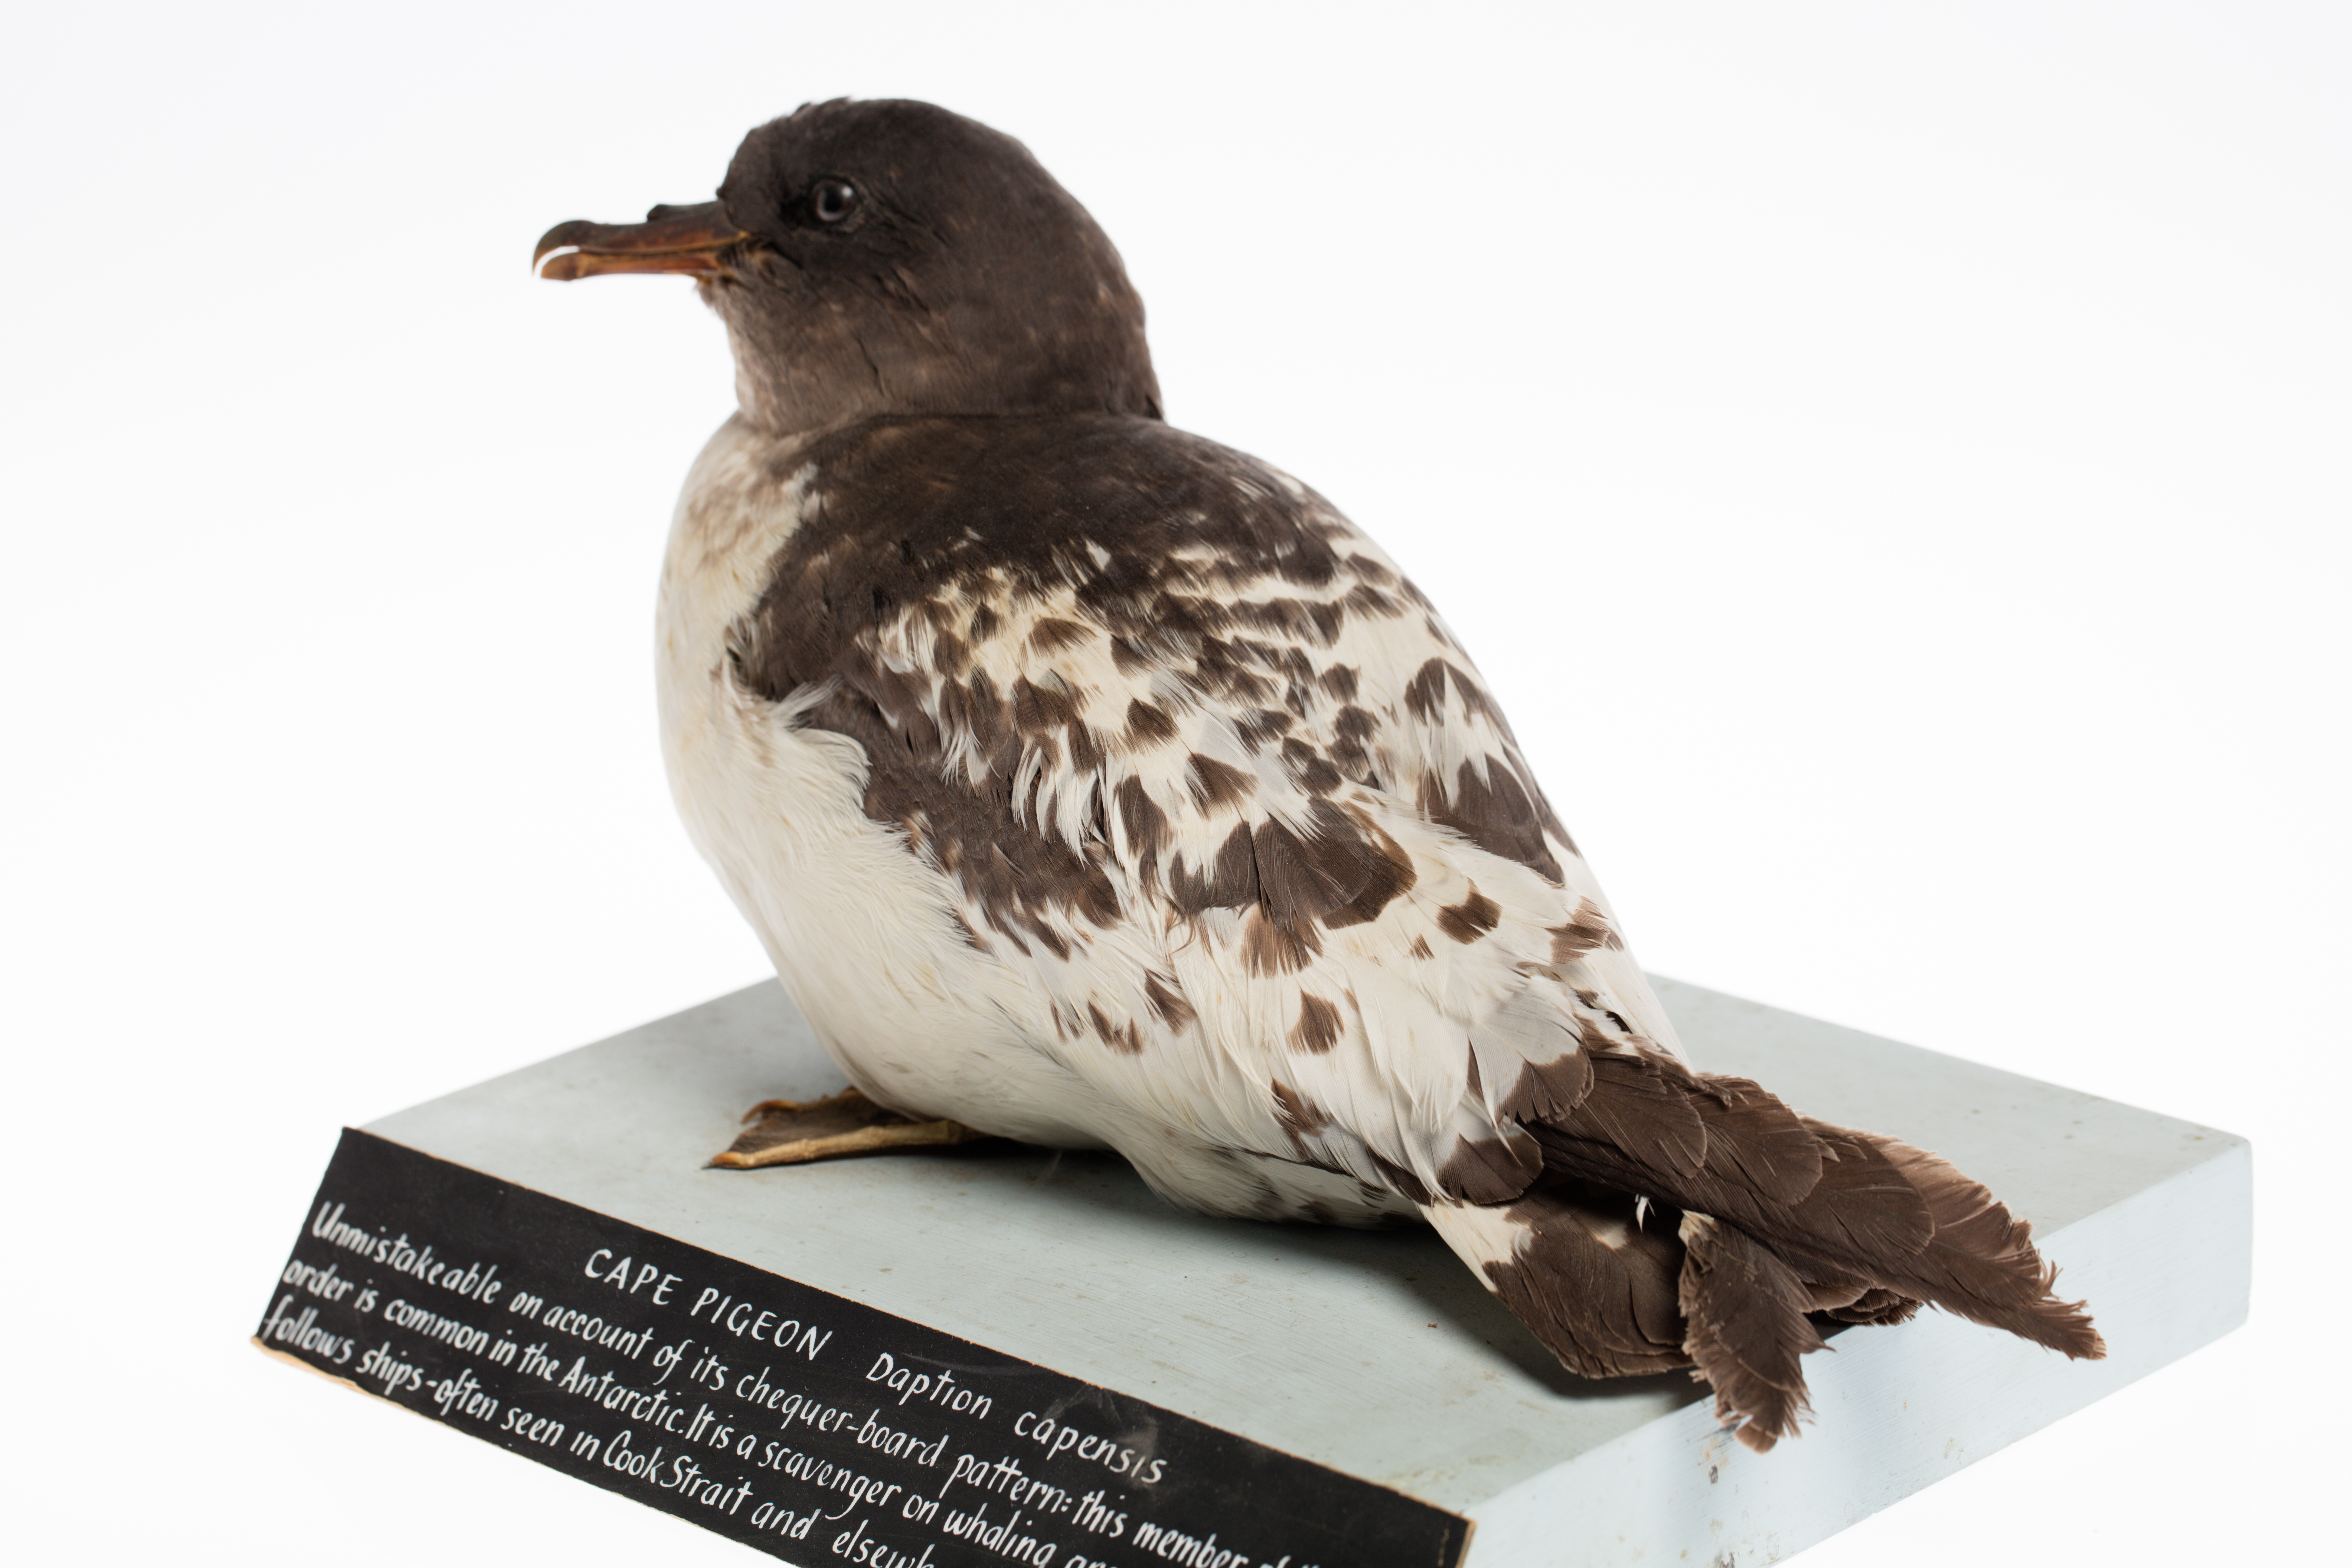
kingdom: Animalia
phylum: Chordata
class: Aves
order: Procellariiformes
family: Procellariidae
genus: Daption
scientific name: Daption capense
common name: Cape petrel
